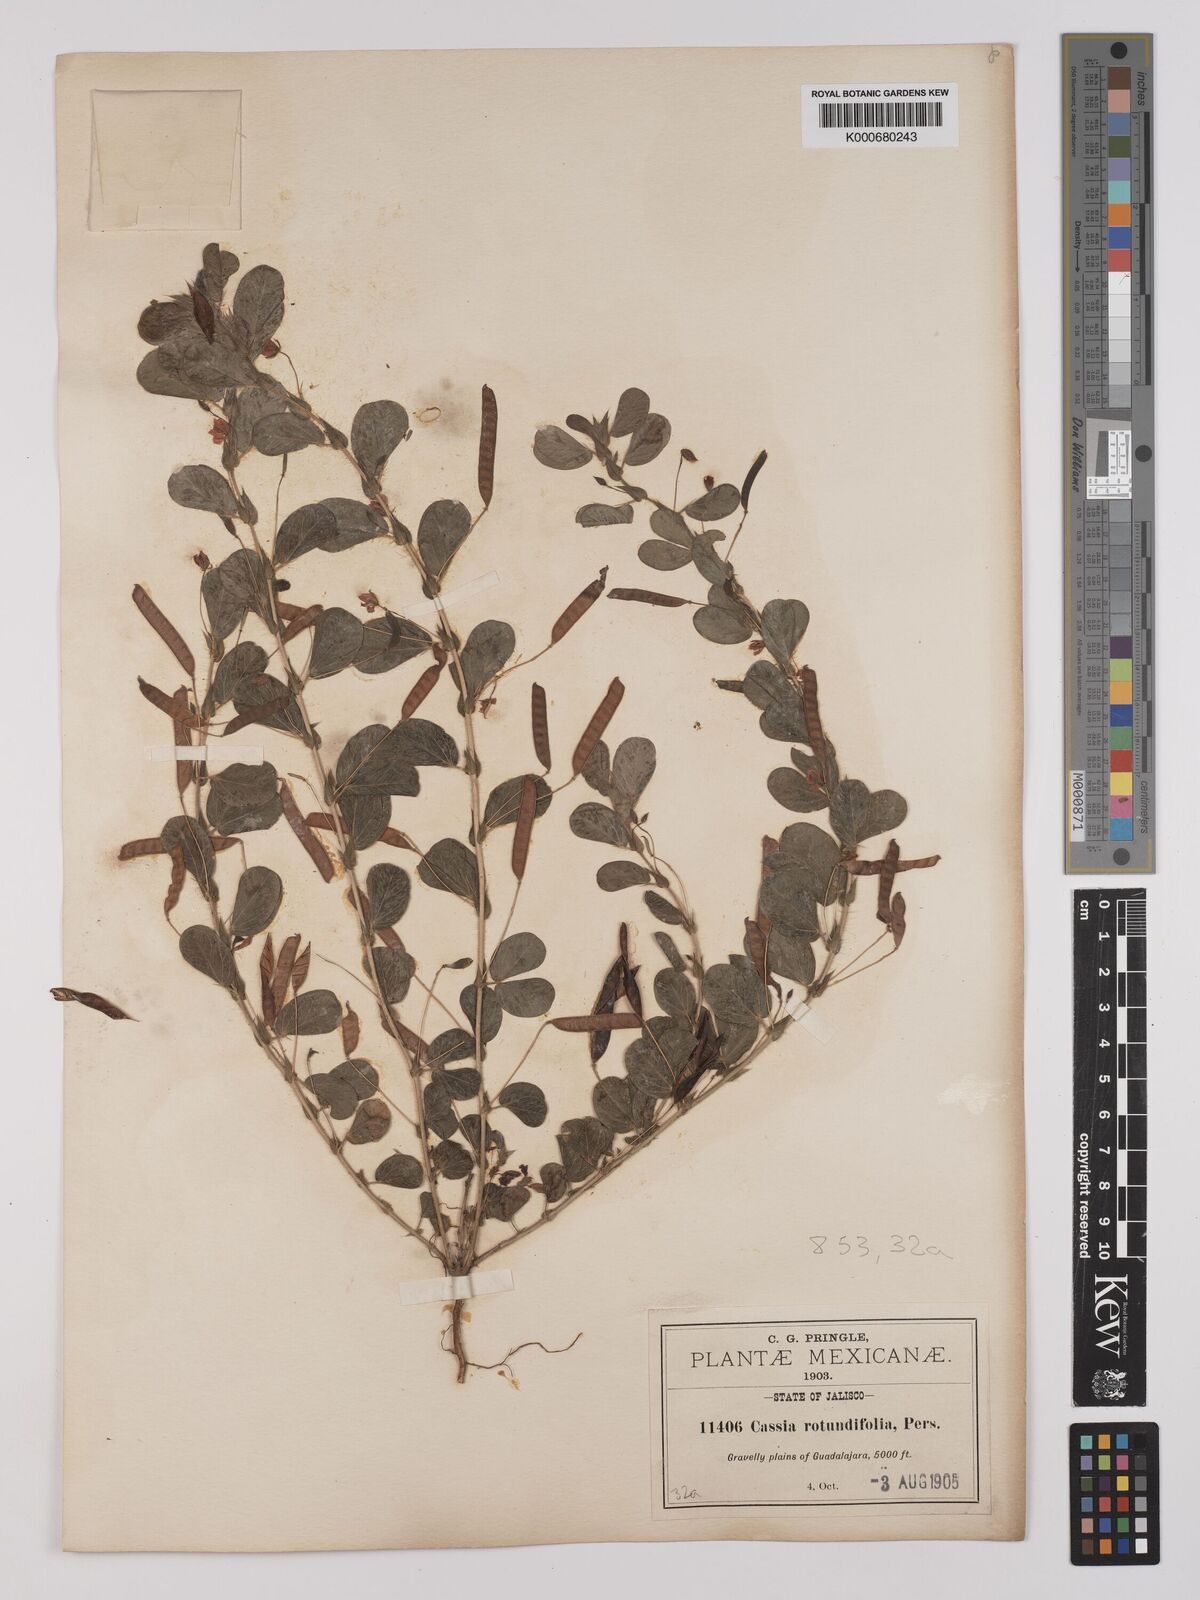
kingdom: Plantae
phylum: Tracheophyta
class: Magnoliopsida
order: Fabales
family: Fabaceae
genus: Chamaecrista
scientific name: Chamaecrista rotundifolia
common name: Round-leaf cassia
